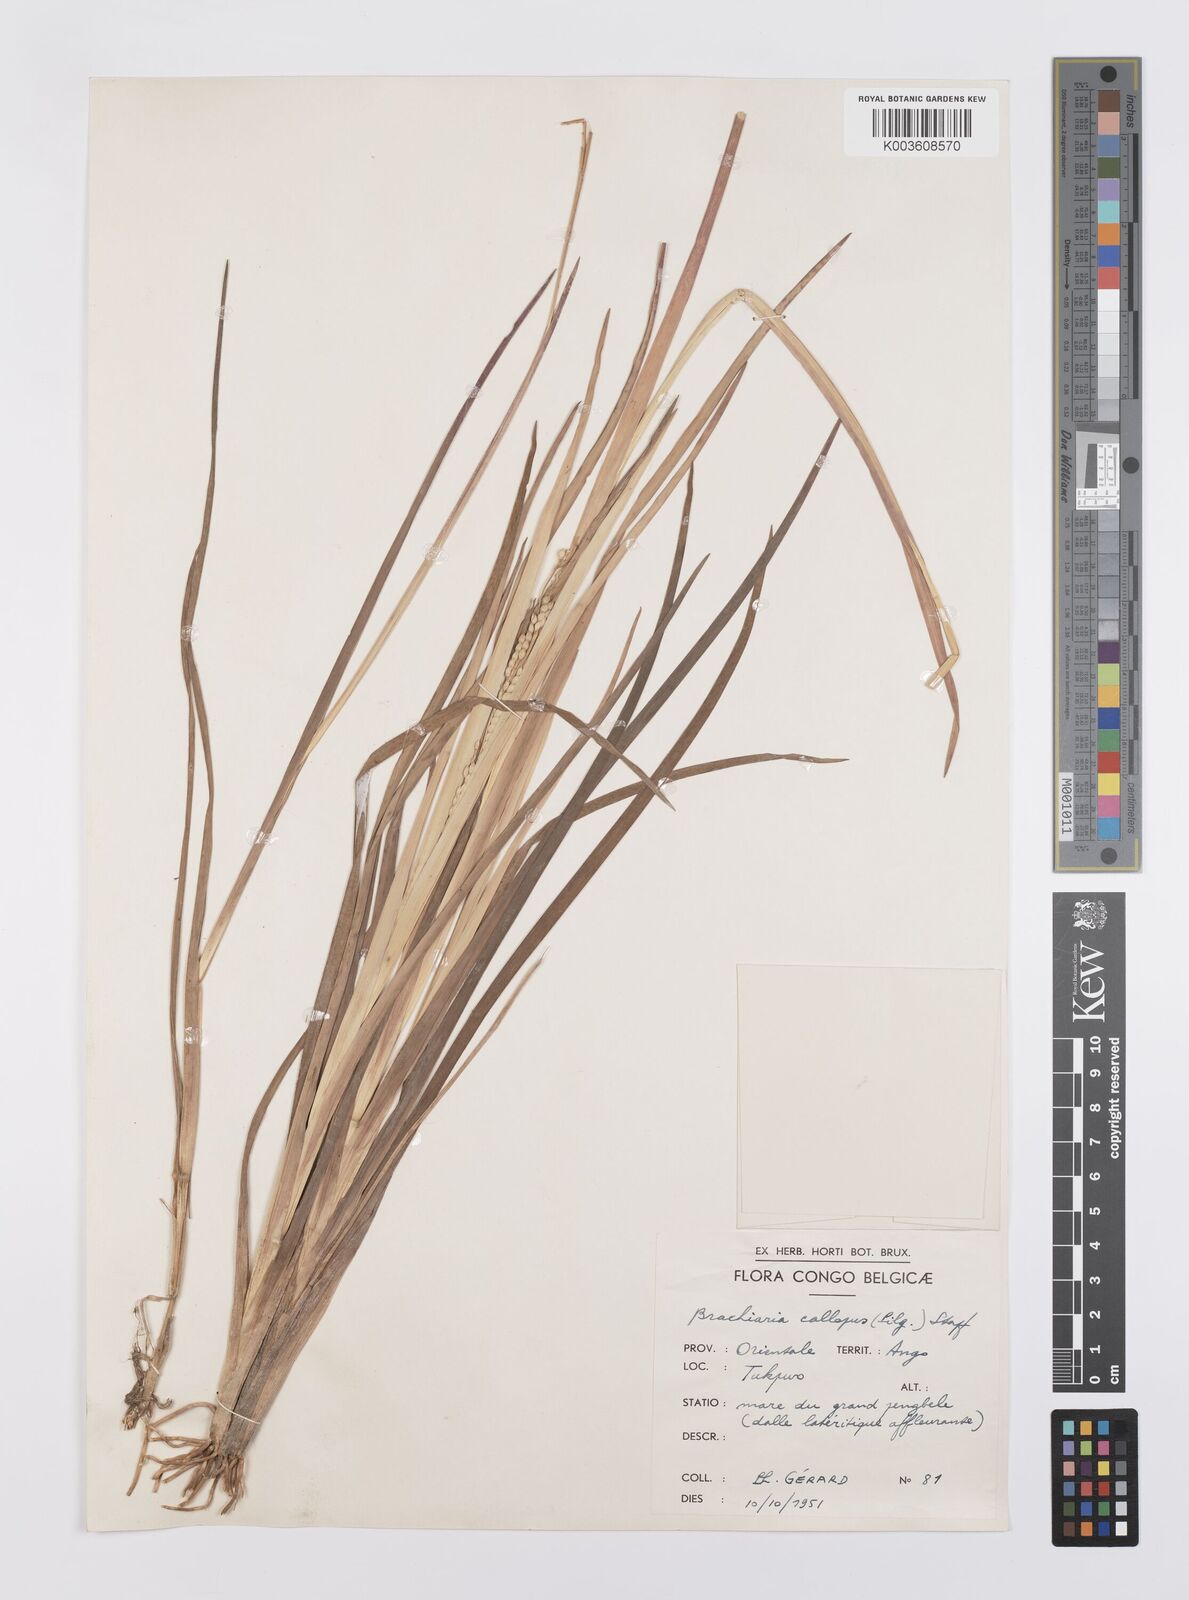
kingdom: Plantae
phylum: Tracheophyta
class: Liliopsida
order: Poales
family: Poaceae
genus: Echinochloa
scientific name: Echinochloa callopus
